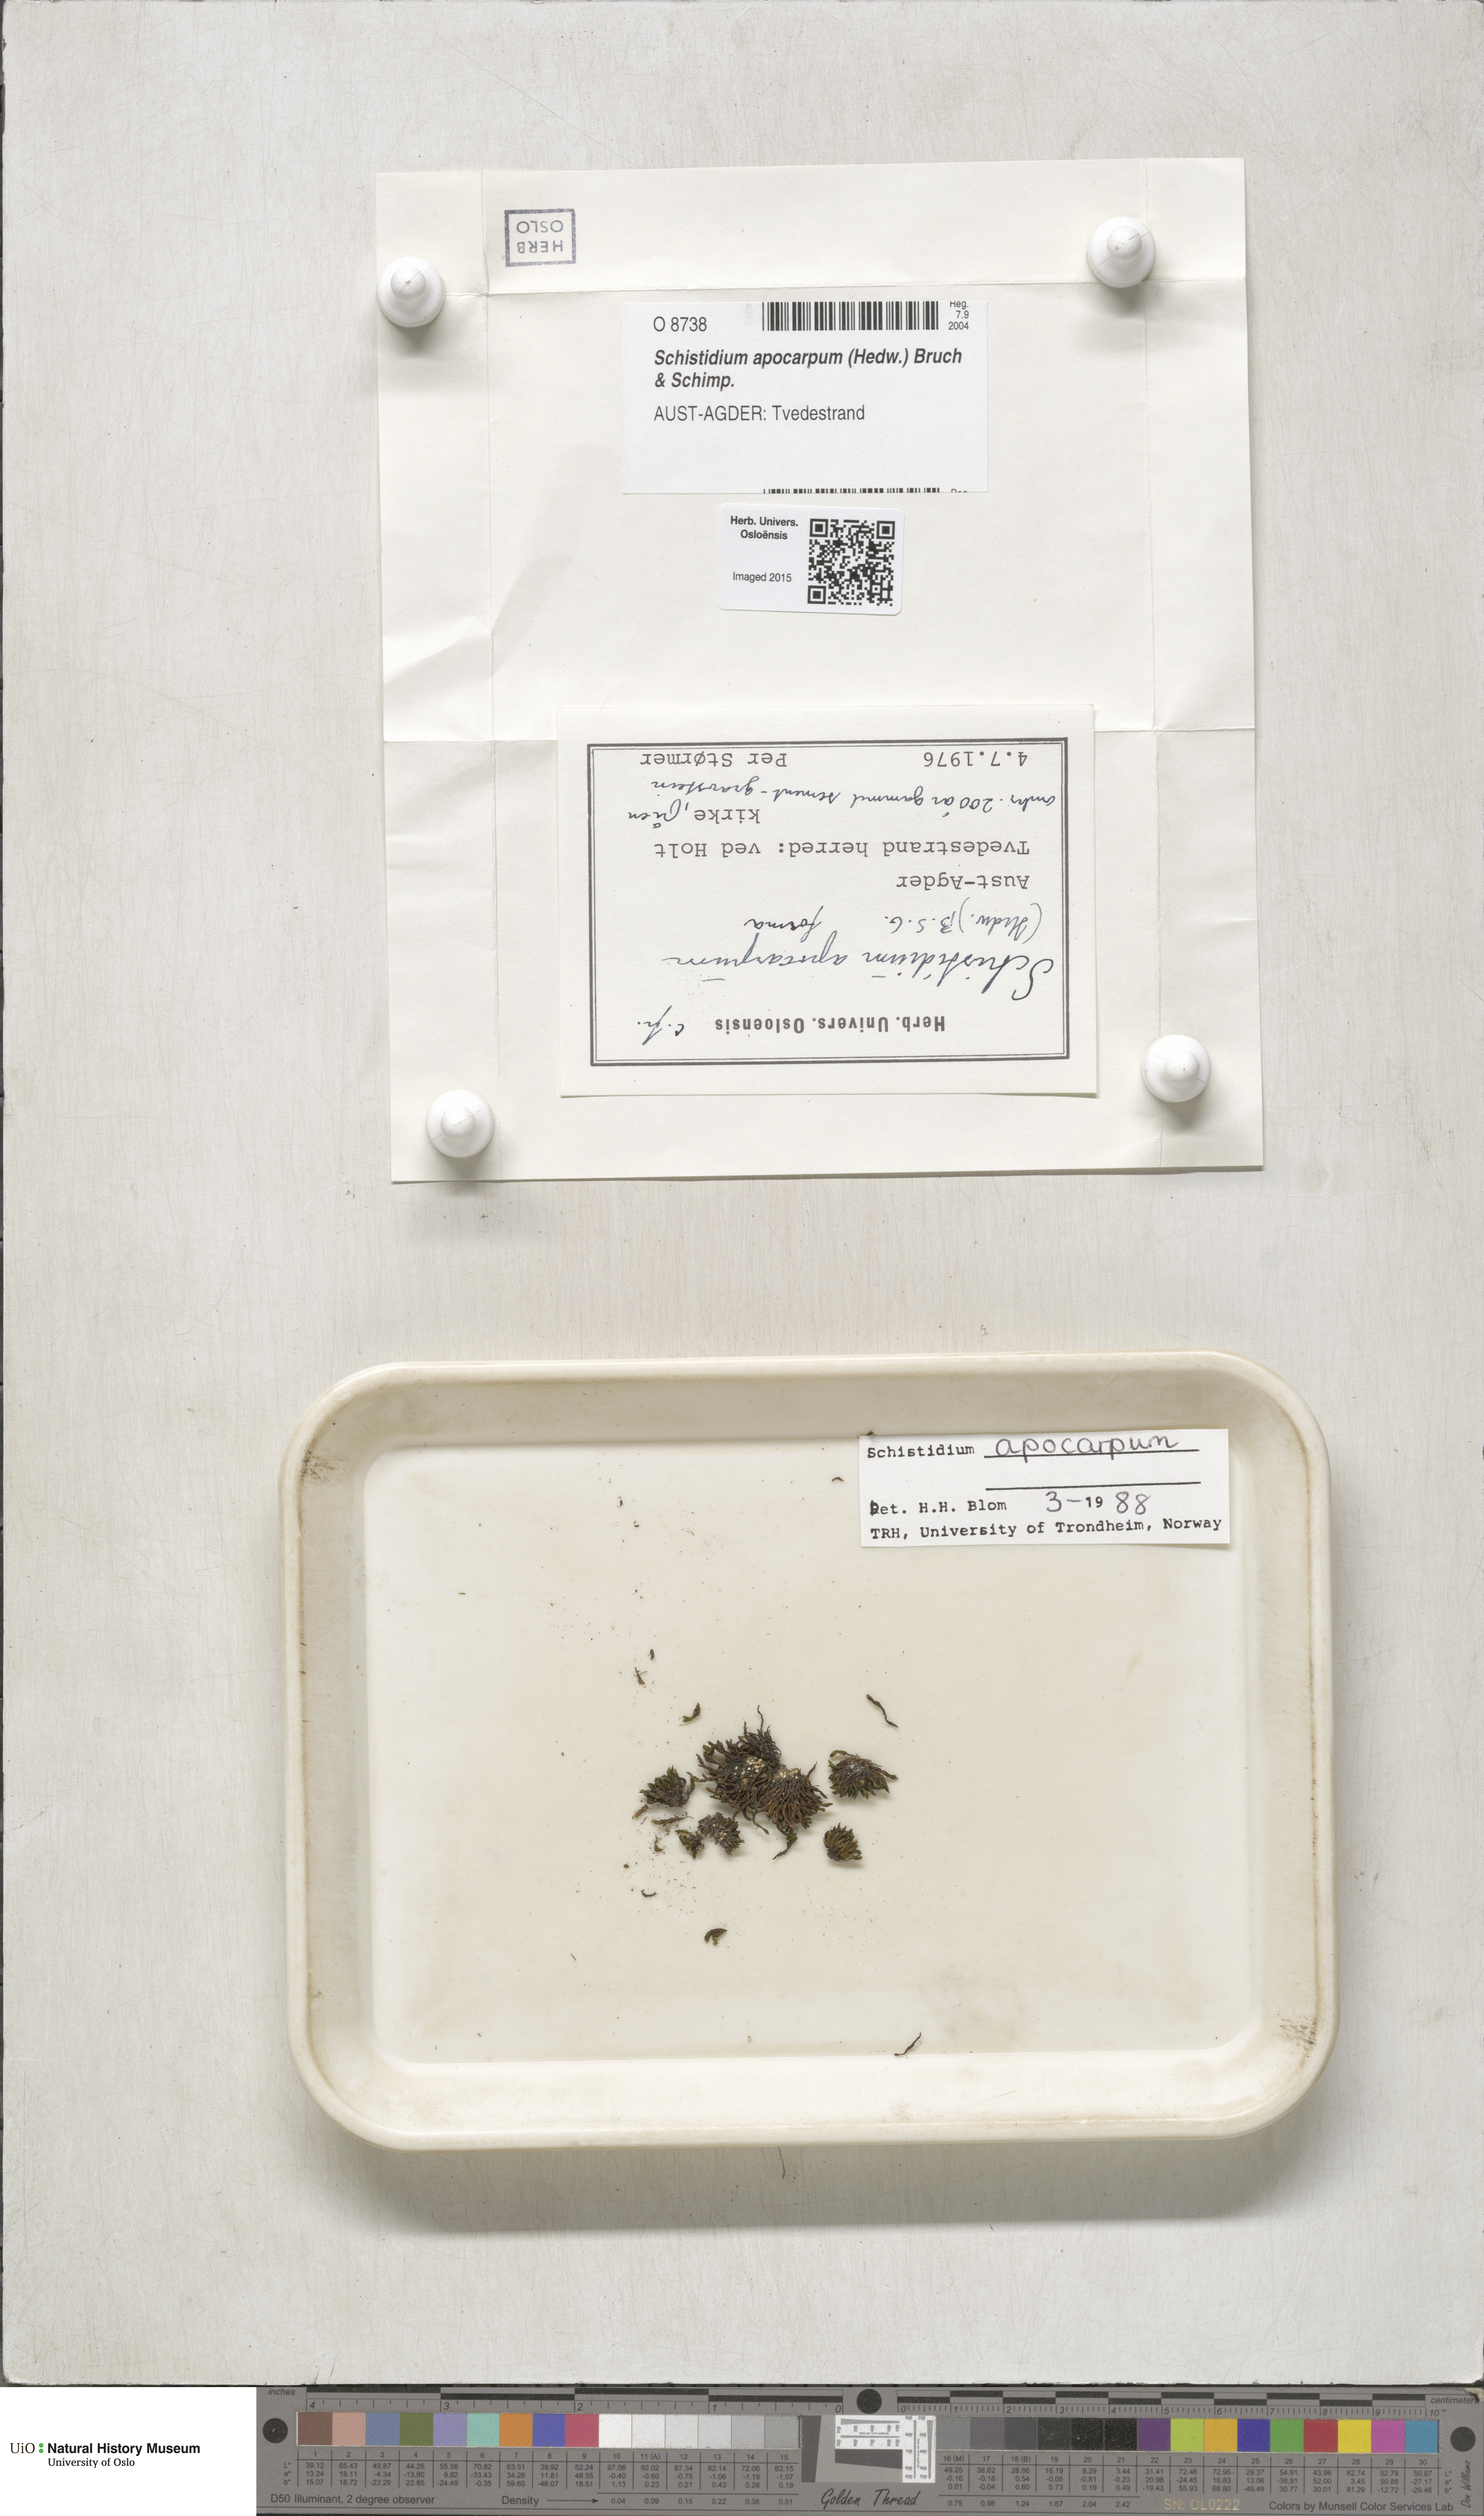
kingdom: Plantae
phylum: Bryophyta
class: Bryopsida
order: Grimmiales
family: Grimmiaceae
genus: Schistidium
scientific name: Schistidium apocarpum
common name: Radiate bloom moss
